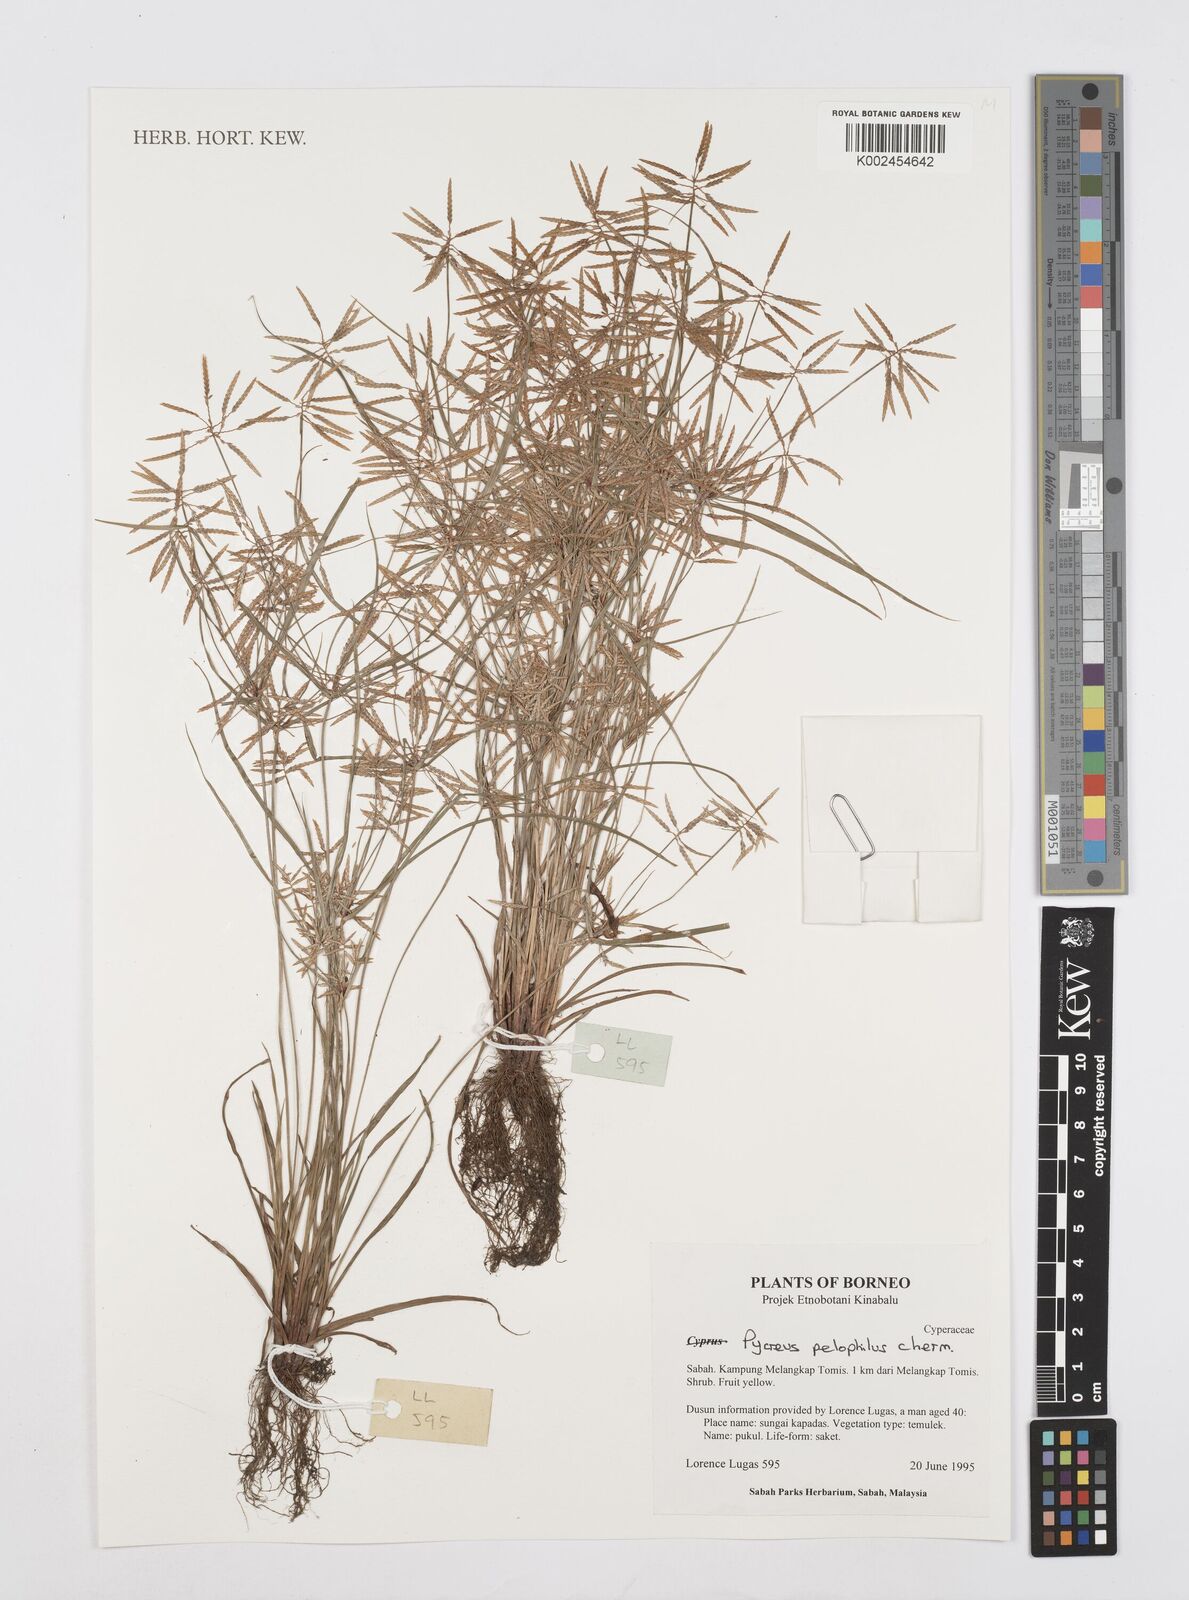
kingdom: Plantae
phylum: Tracheophyta
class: Liliopsida
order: Poales
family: Cyperaceae
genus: Cyperus
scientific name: Cyperus pelophilus
